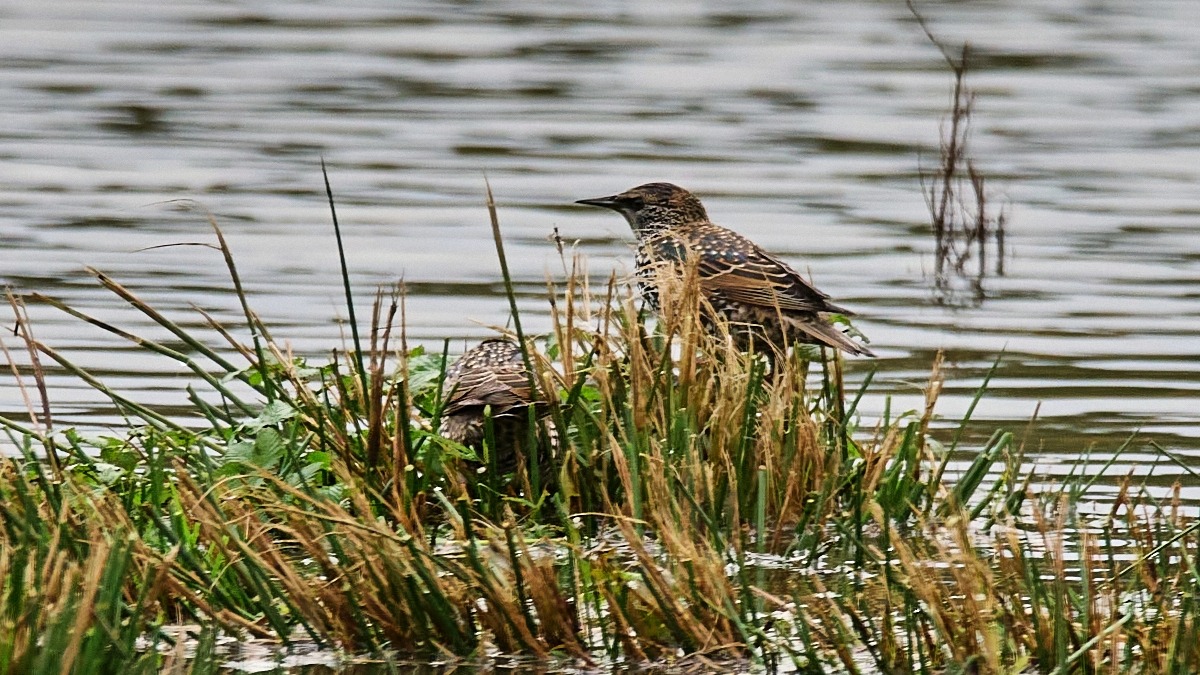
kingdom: Animalia
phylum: Chordata
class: Aves
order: Passeriformes
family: Sturnidae
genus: Sturnus
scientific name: Sturnus vulgaris
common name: Stær
